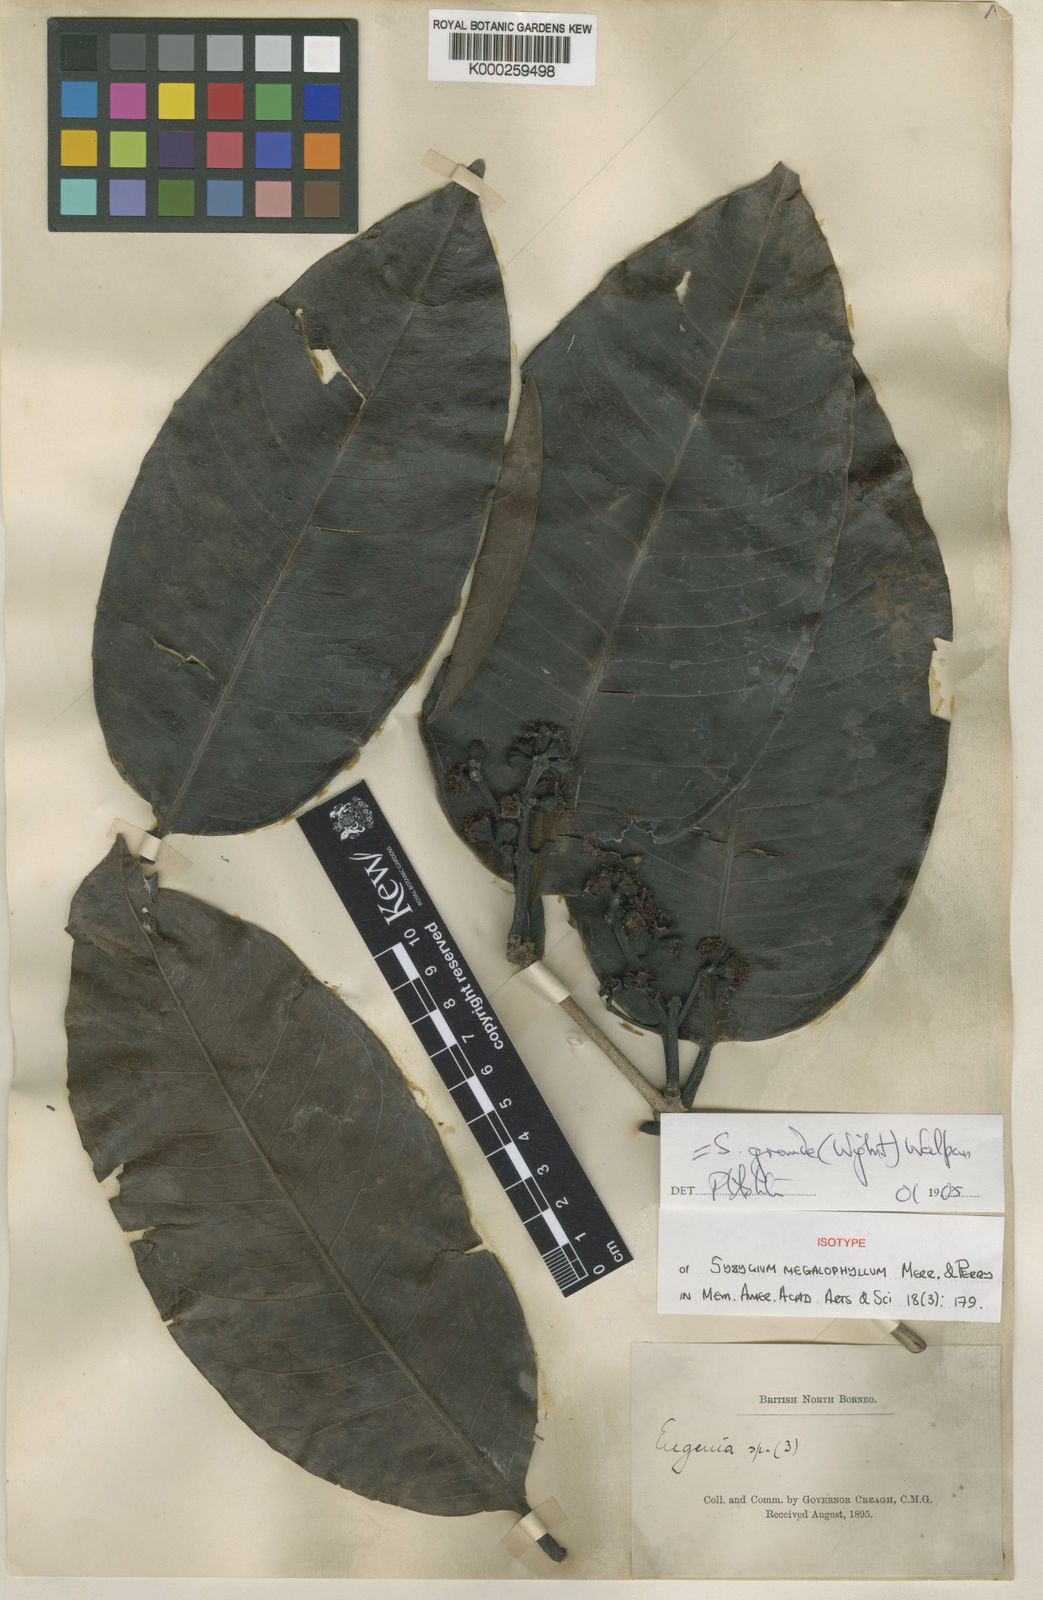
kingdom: Plantae
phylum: Tracheophyta
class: Magnoliopsida
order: Myrtales
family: Myrtaceae
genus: Syzygium
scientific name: Syzygium grande
